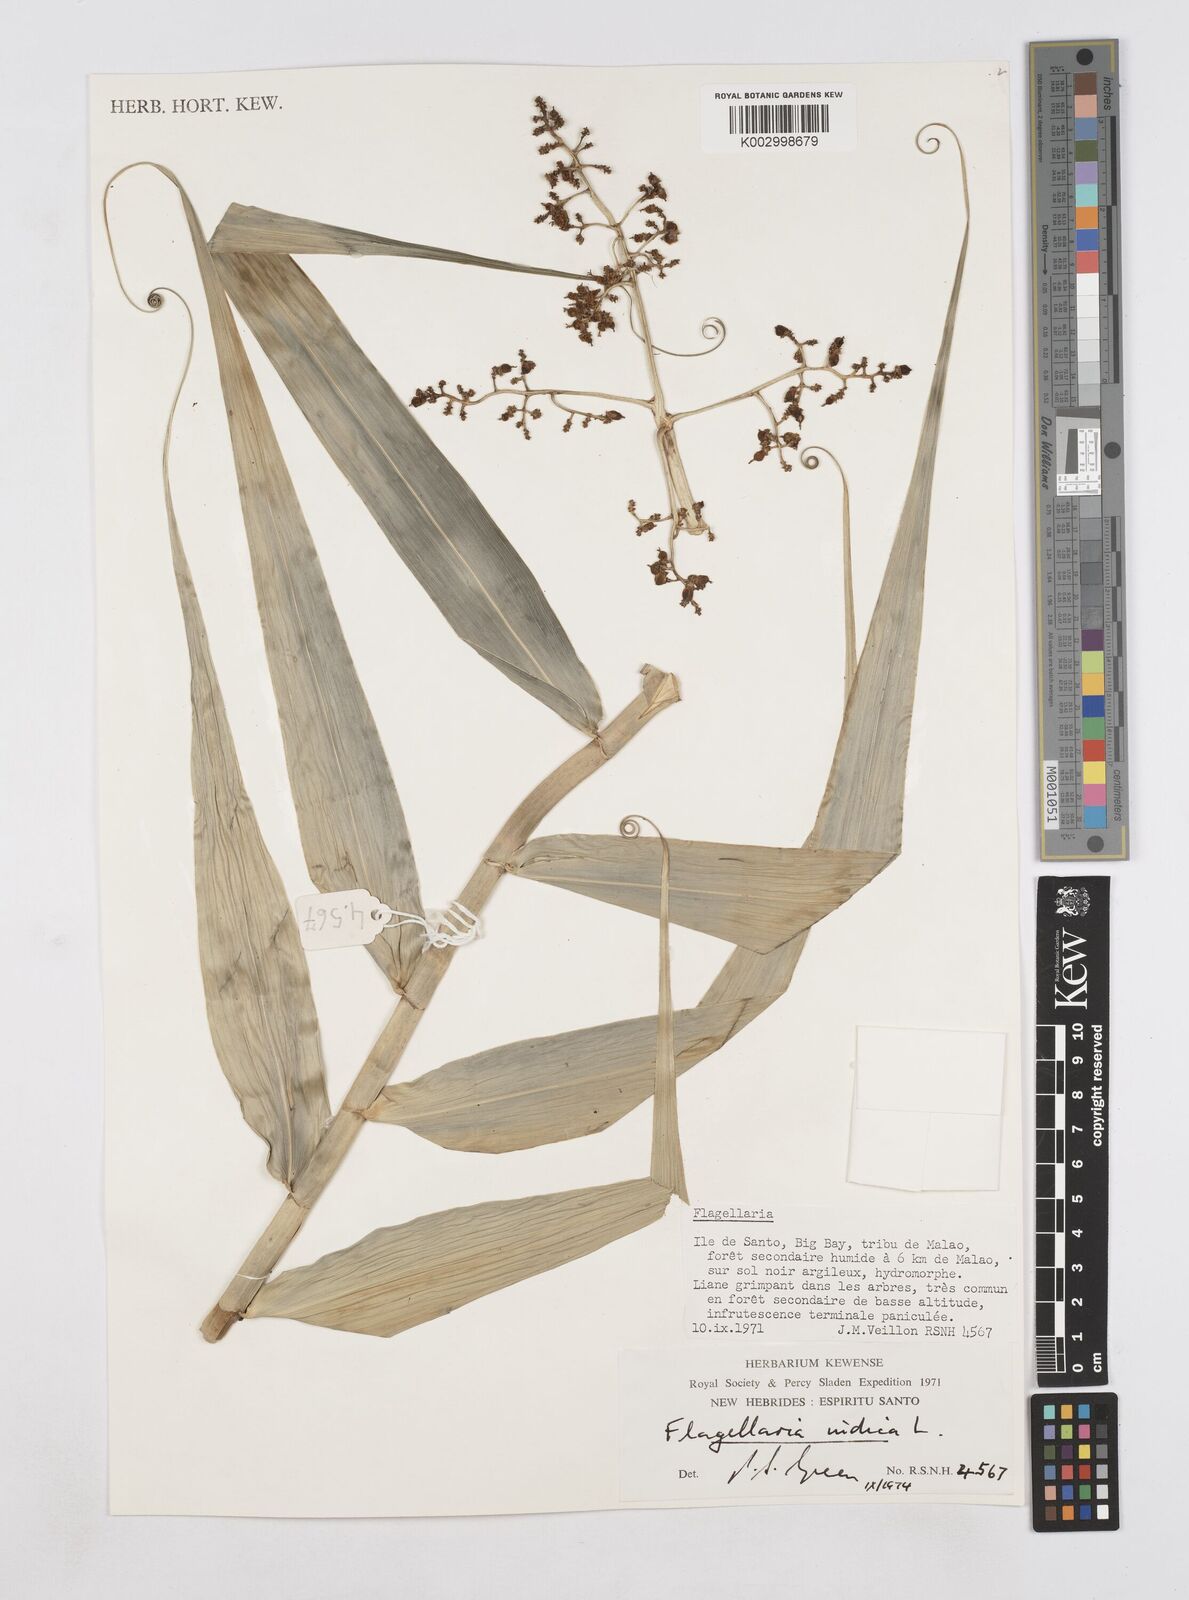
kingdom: Plantae
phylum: Tracheophyta
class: Liliopsida
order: Poales
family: Flagellariaceae
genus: Flagellaria
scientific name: Flagellaria indica
